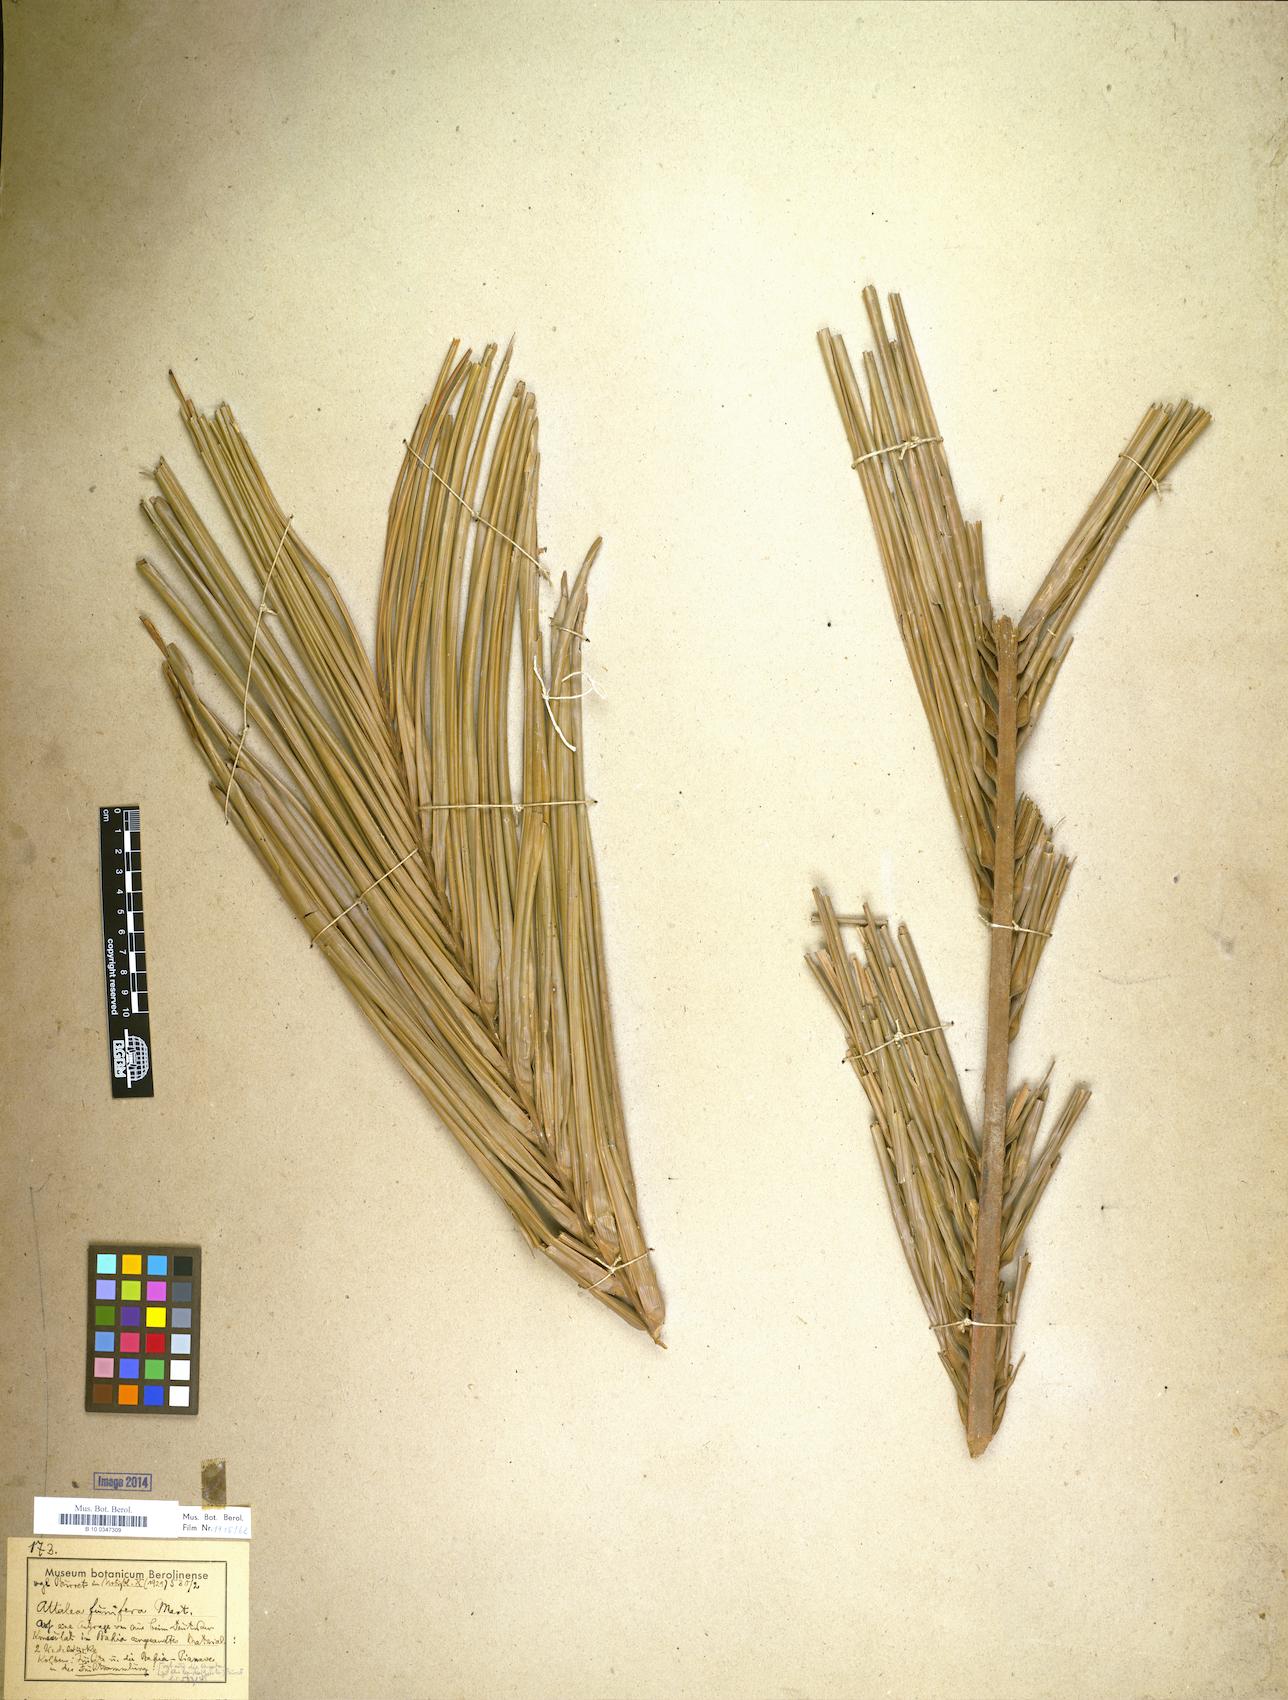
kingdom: Plantae
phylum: Tracheophyta
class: Liliopsida
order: Arecales
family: Arecaceae
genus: Attalea
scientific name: Attalea funifera
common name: Piassava palm
